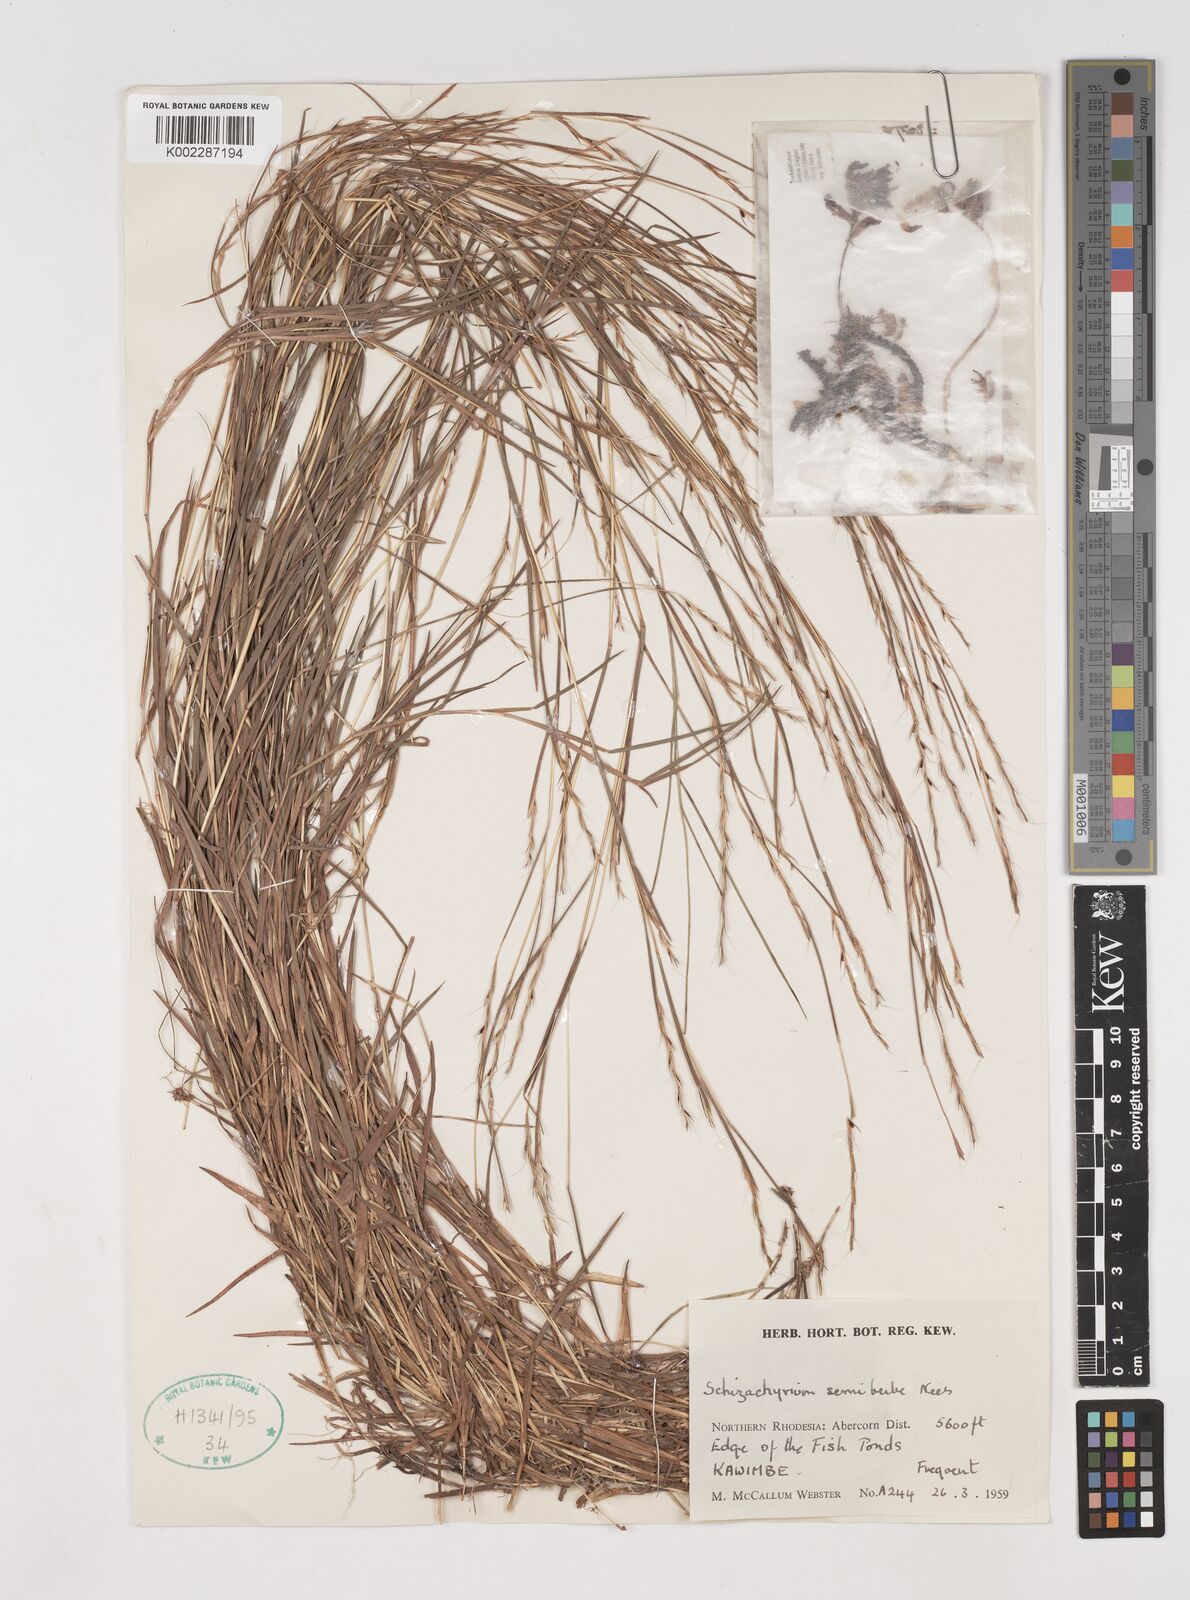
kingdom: Plantae
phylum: Tracheophyta
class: Liliopsida
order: Poales
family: Poaceae
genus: Schizachyrium
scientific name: Schizachyrium sanguineum
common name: Crimson bluestem
